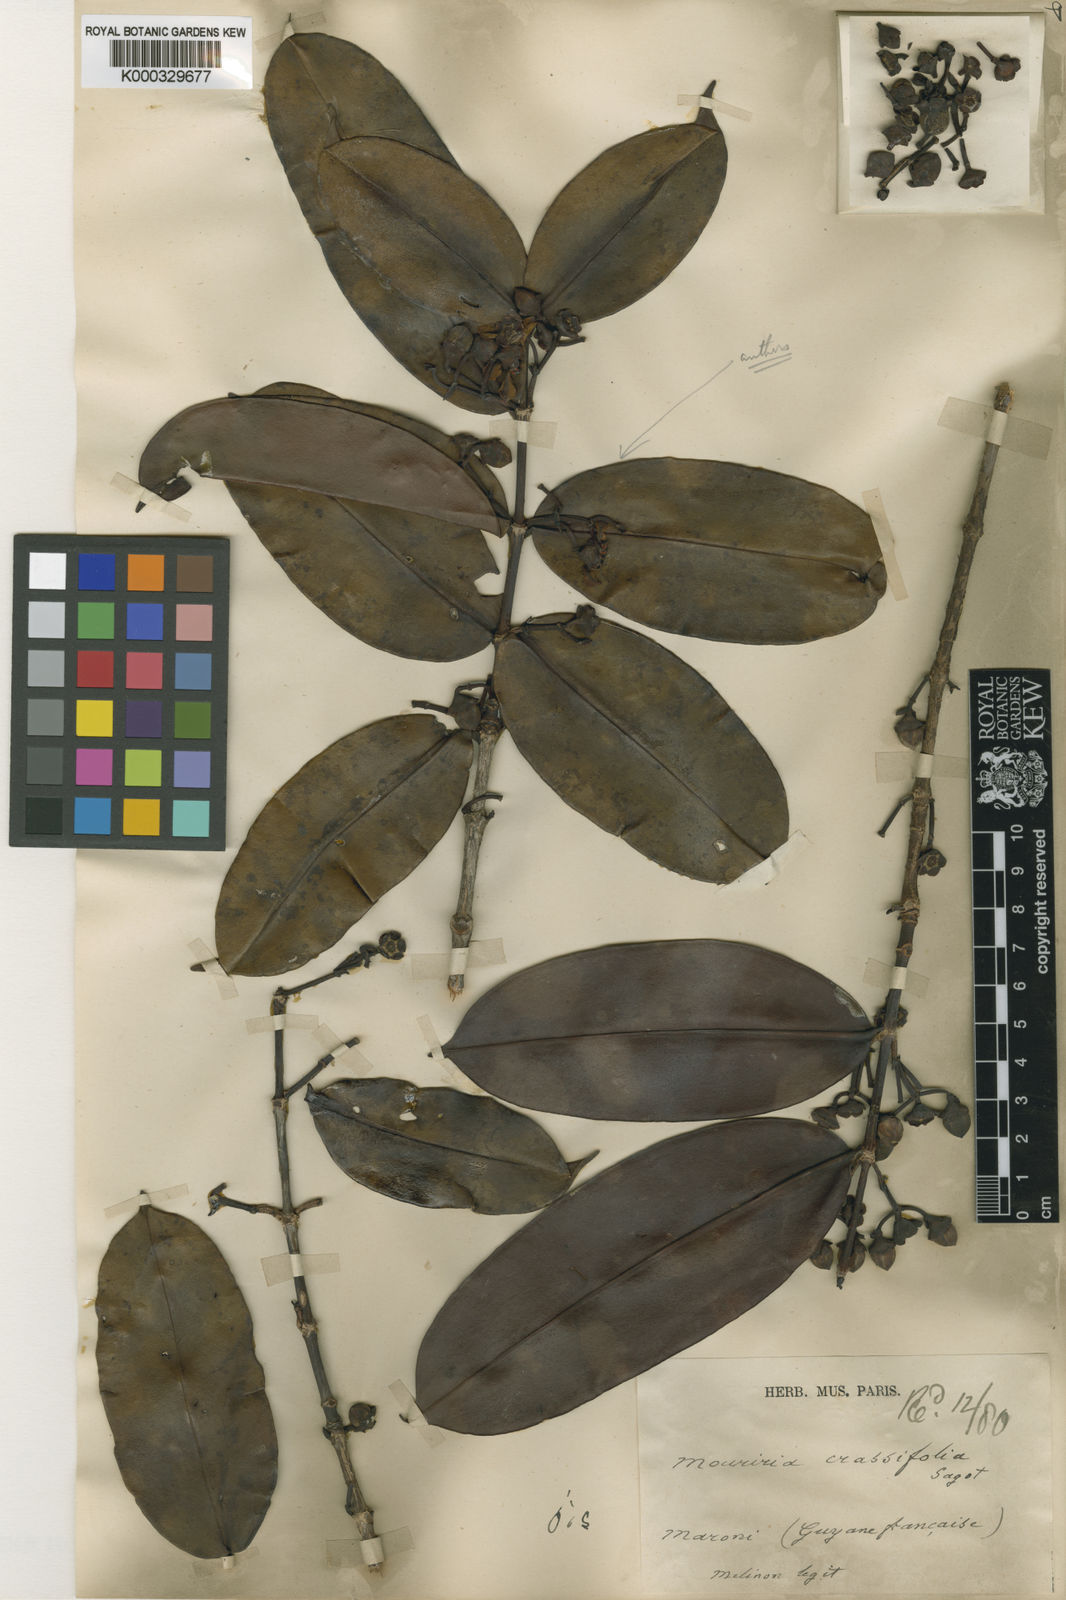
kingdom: Plantae
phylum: Tracheophyta
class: Magnoliopsida
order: Myrtales
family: Melastomataceae
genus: Mouriri
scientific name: Mouriri crassifolia
